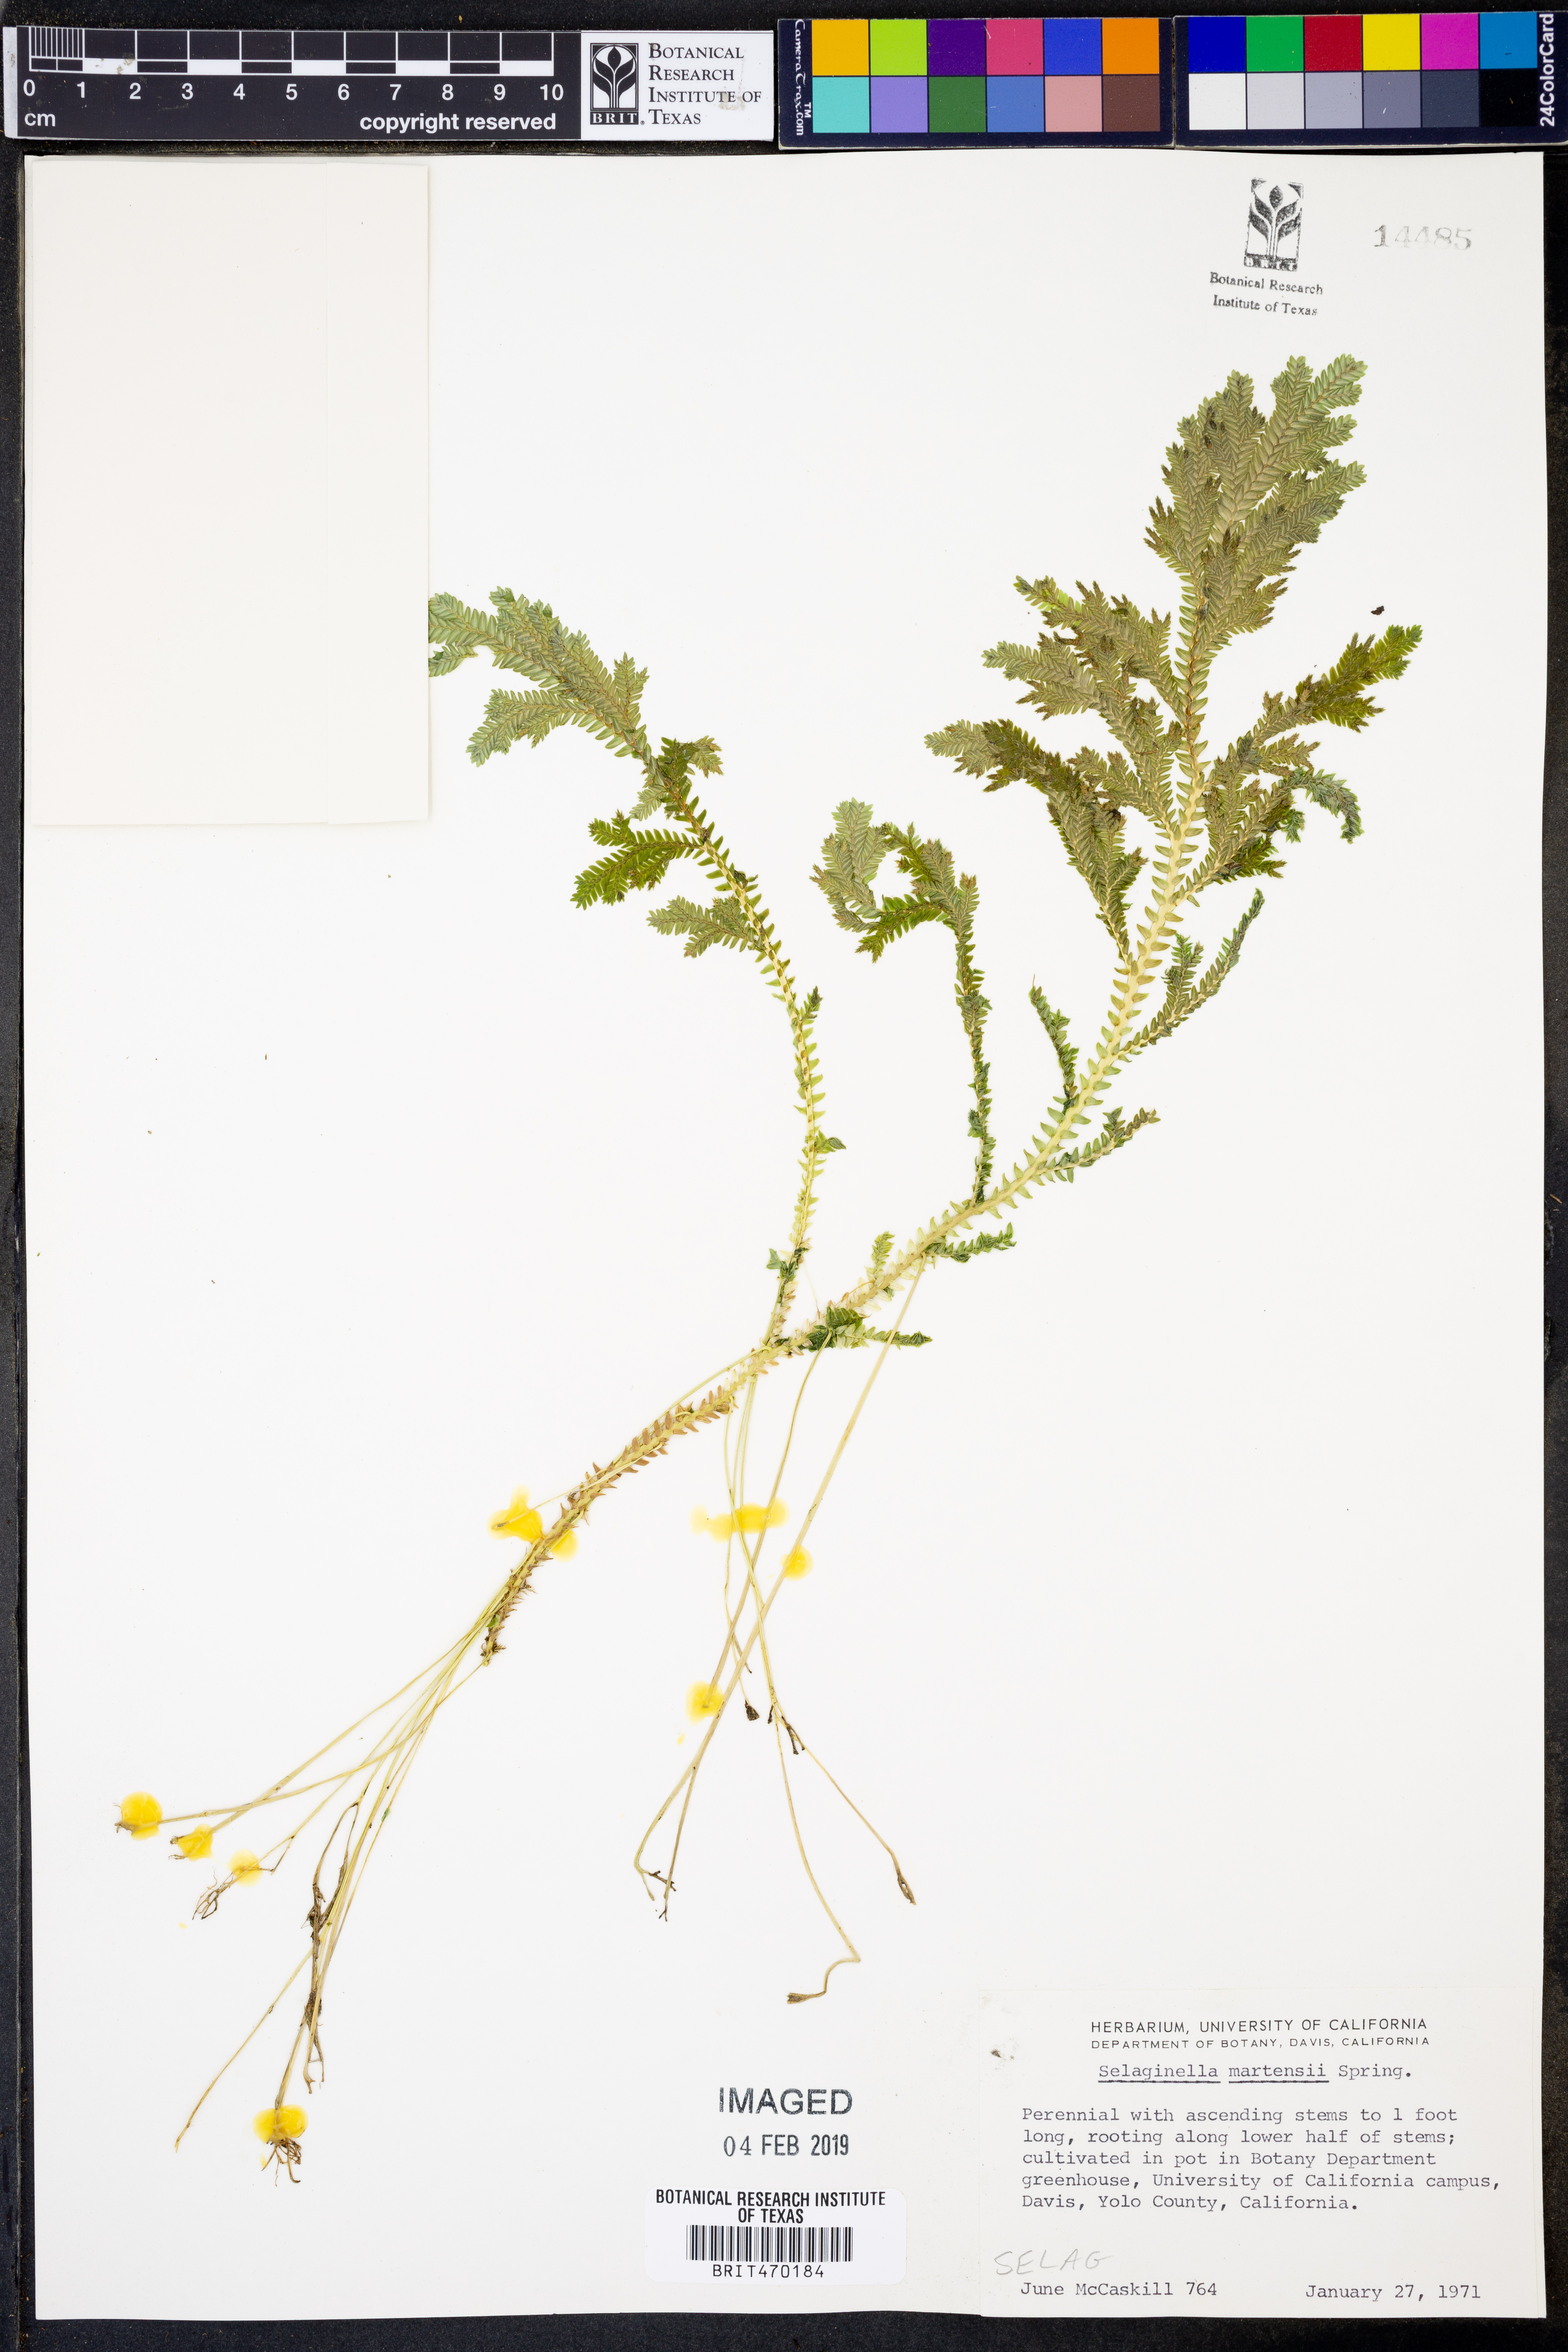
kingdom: Plantae
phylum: Tracheophyta
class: Lycopodiopsida
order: Selaginellales
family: Selaginellaceae
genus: Selaginella
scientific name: Selaginella martensii
